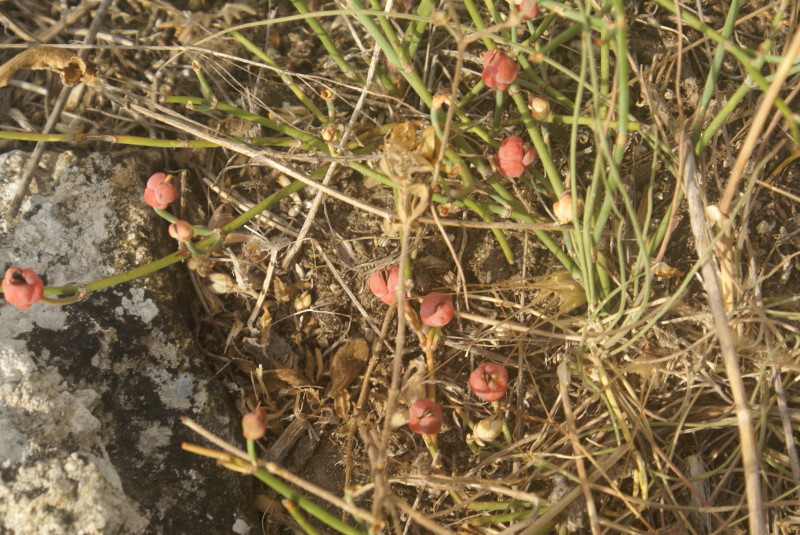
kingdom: Plantae
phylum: Tracheophyta
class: Gnetopsida
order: Ephedrales
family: Ephedraceae
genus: Ephedra
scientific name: Ephedra distachya
